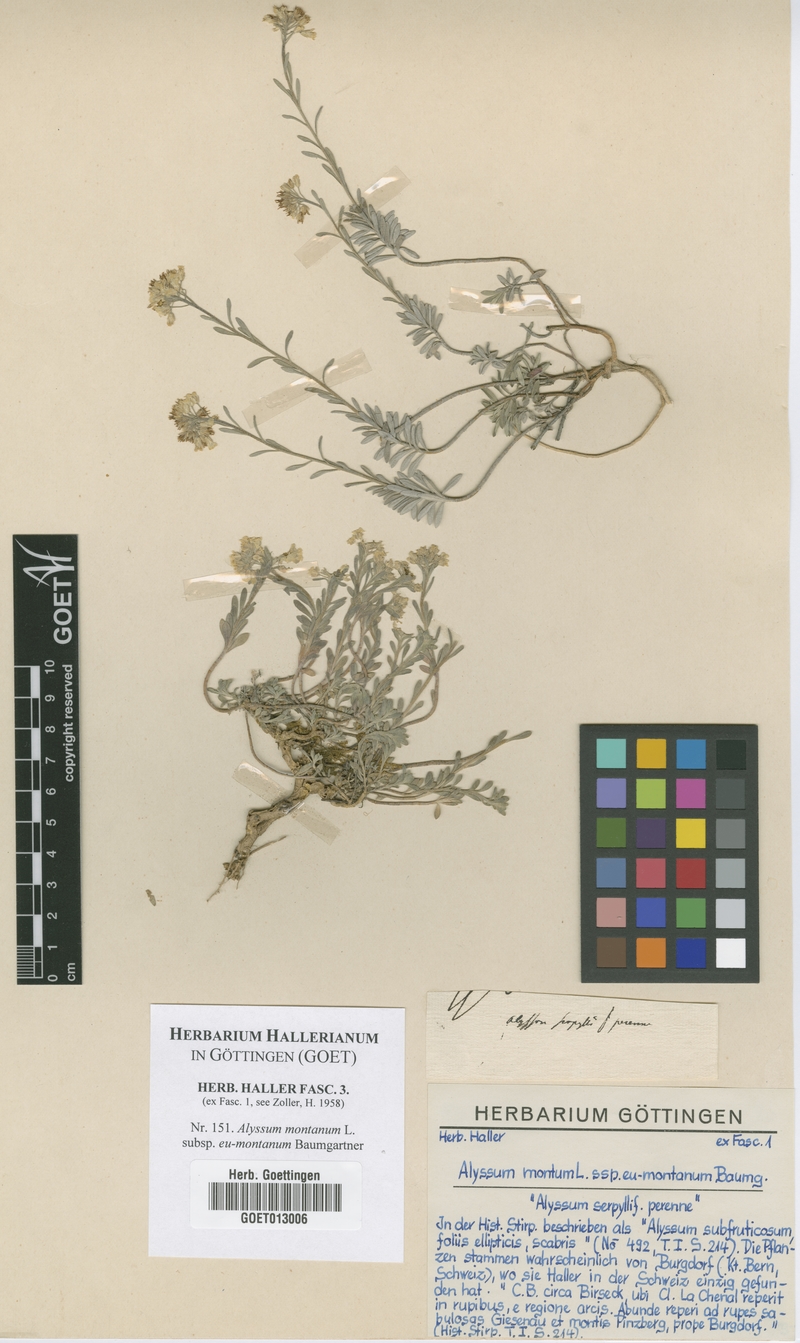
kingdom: Plantae
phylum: Tracheophyta
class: Magnoliopsida
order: Brassicales
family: Brassicaceae
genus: Alyssum
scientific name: Alyssum montanum
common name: Mountain alison
